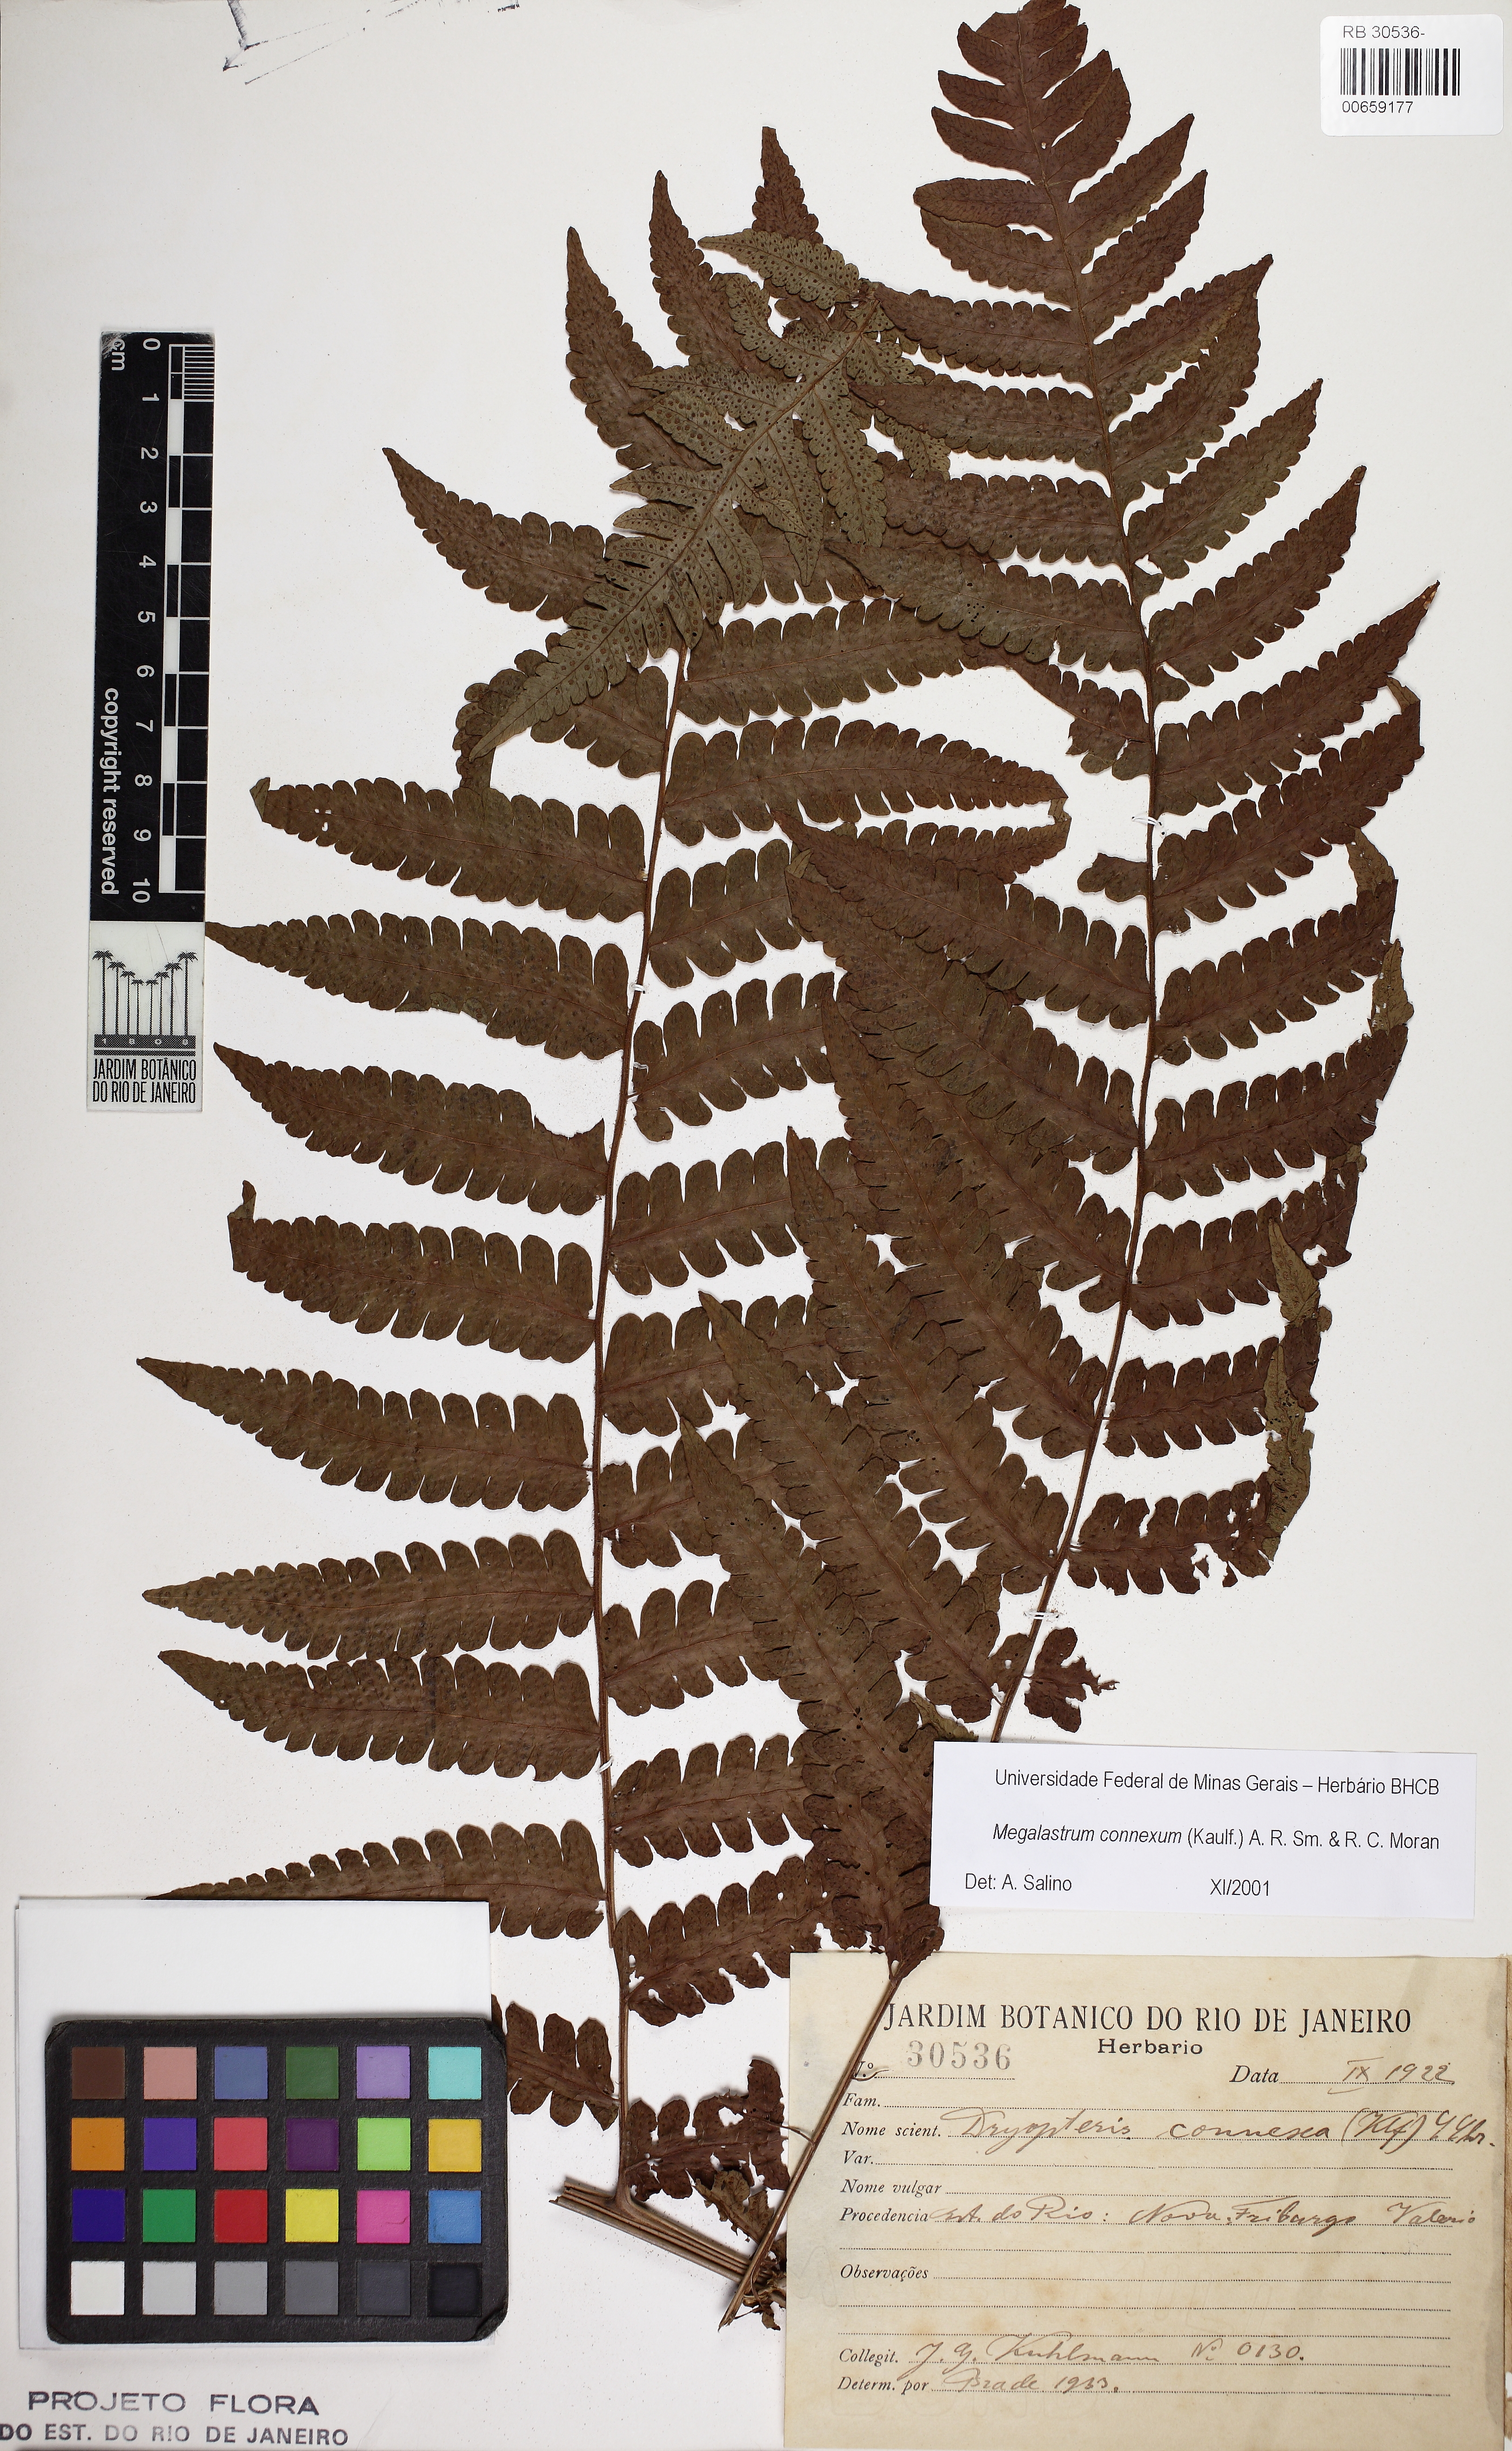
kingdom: Plantae
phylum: Tracheophyta
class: Polypodiopsida
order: Polypodiales
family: Dryopteridaceae
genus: Megalastrum
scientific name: Megalastrum connexum
